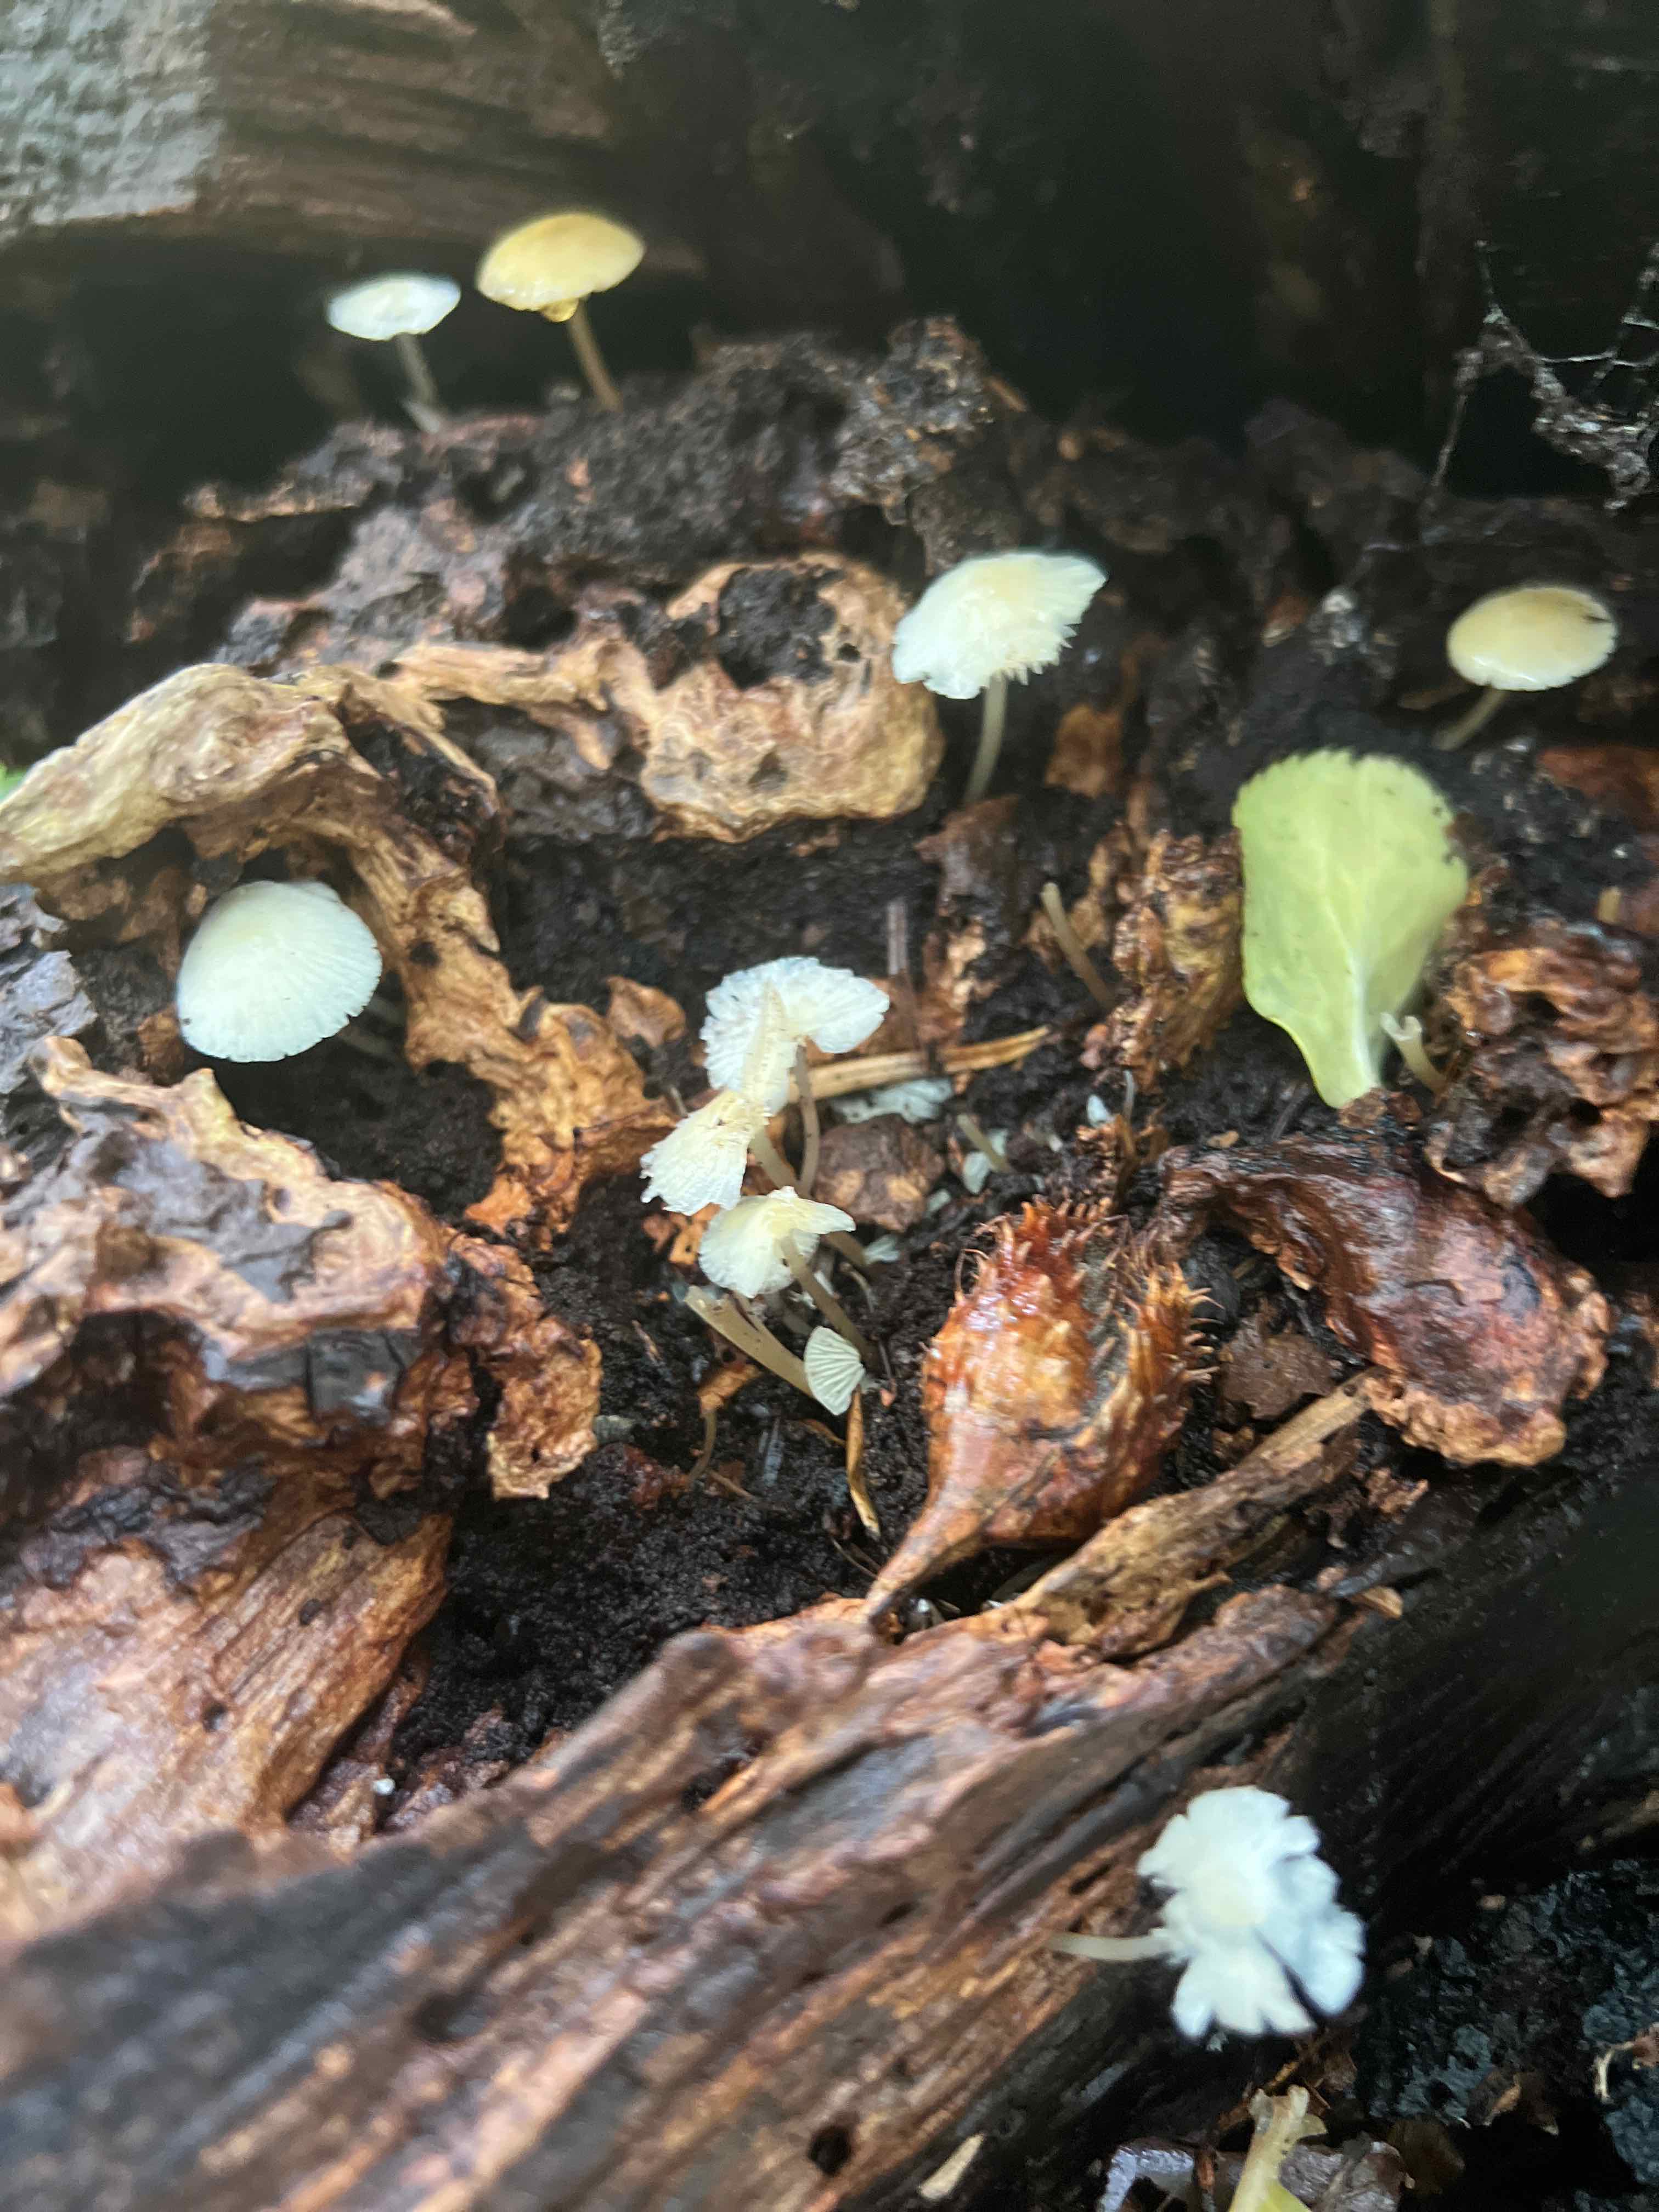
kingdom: Fungi
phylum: Basidiomycota
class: Agaricomycetes
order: Agaricales
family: Mycenaceae
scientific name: Mycenaceae
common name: huesvampfamilien
